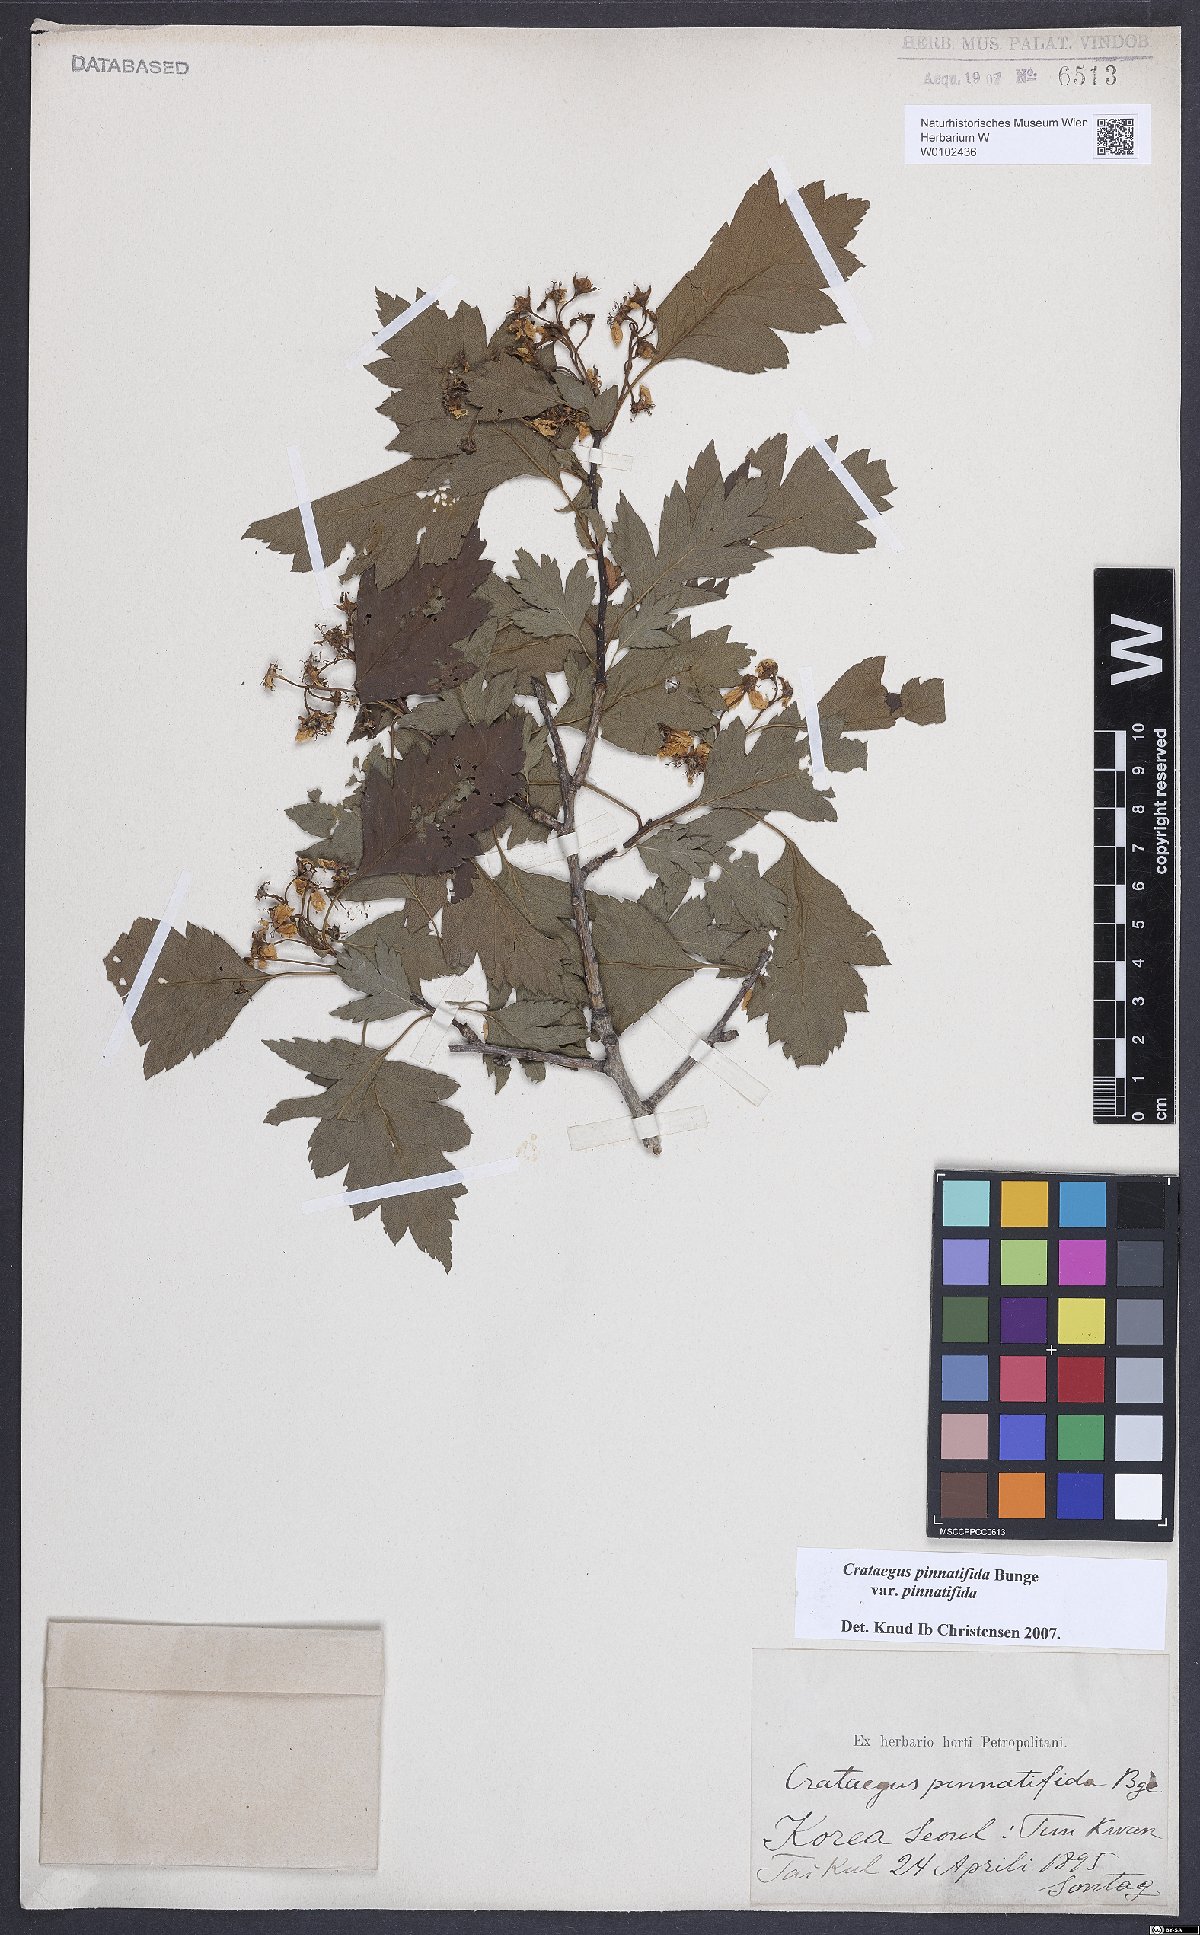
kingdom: Plantae
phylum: Tracheophyta
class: Magnoliopsida
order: Rosales
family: Rosaceae
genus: Crataegus
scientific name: Crataegus pinnatifida
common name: Chinese haw
